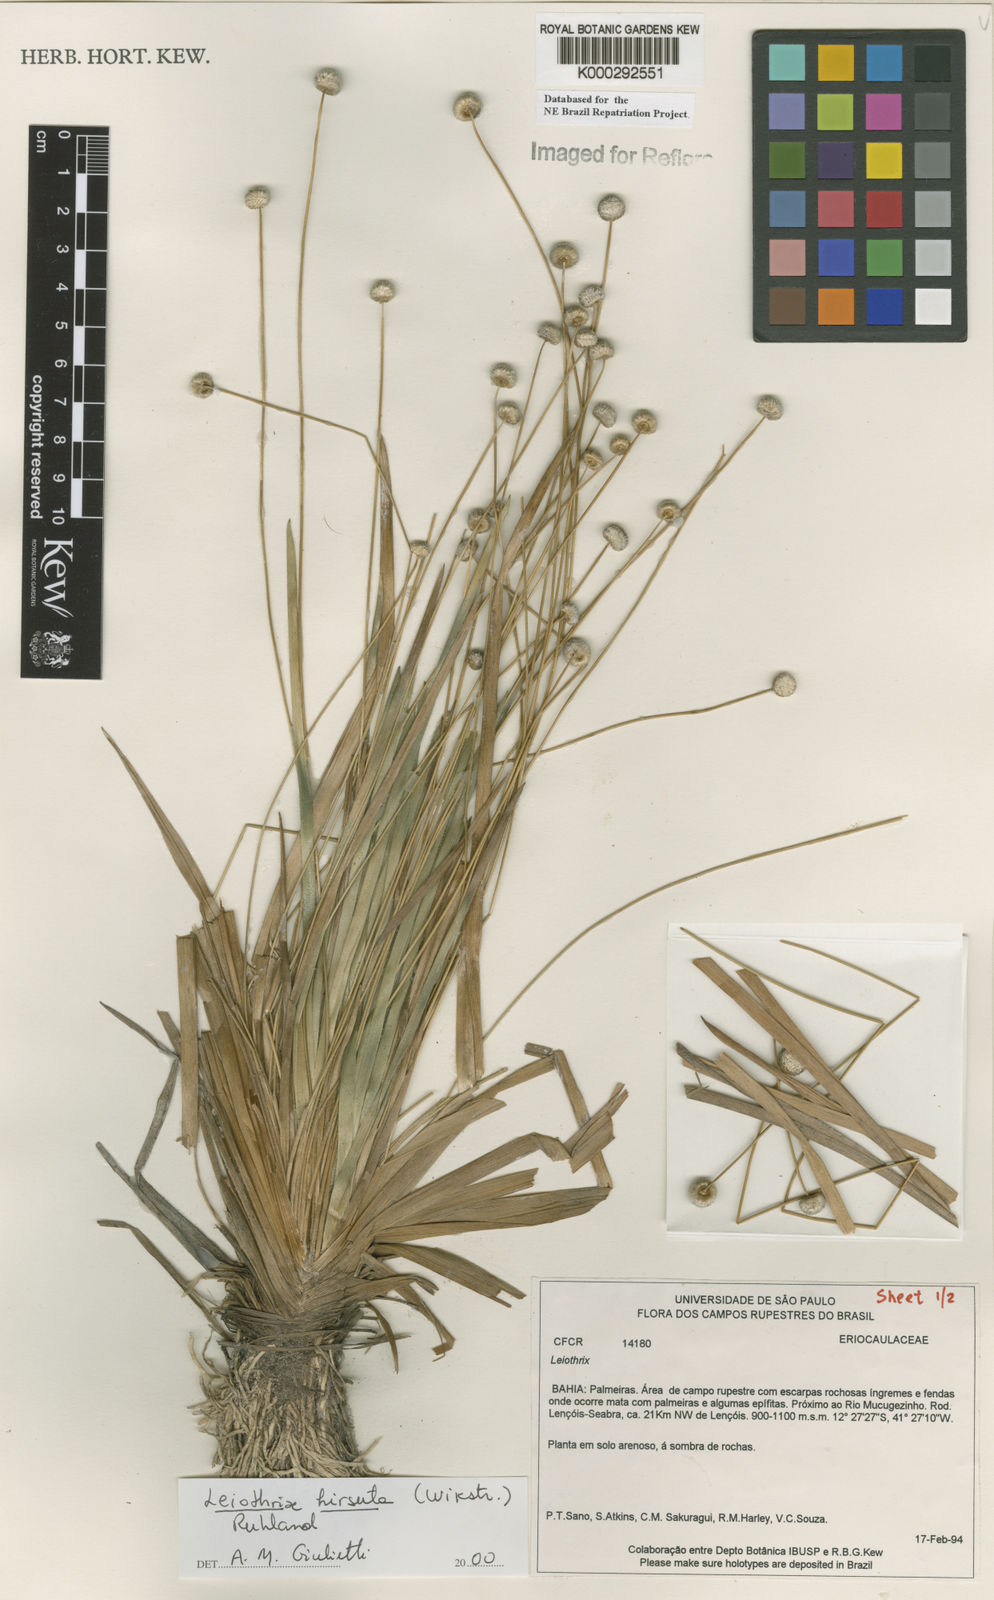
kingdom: Plantae
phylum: Tracheophyta
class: Liliopsida
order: Poales
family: Eriocaulaceae
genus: Leiothrix
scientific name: Leiothrix hirsuta
